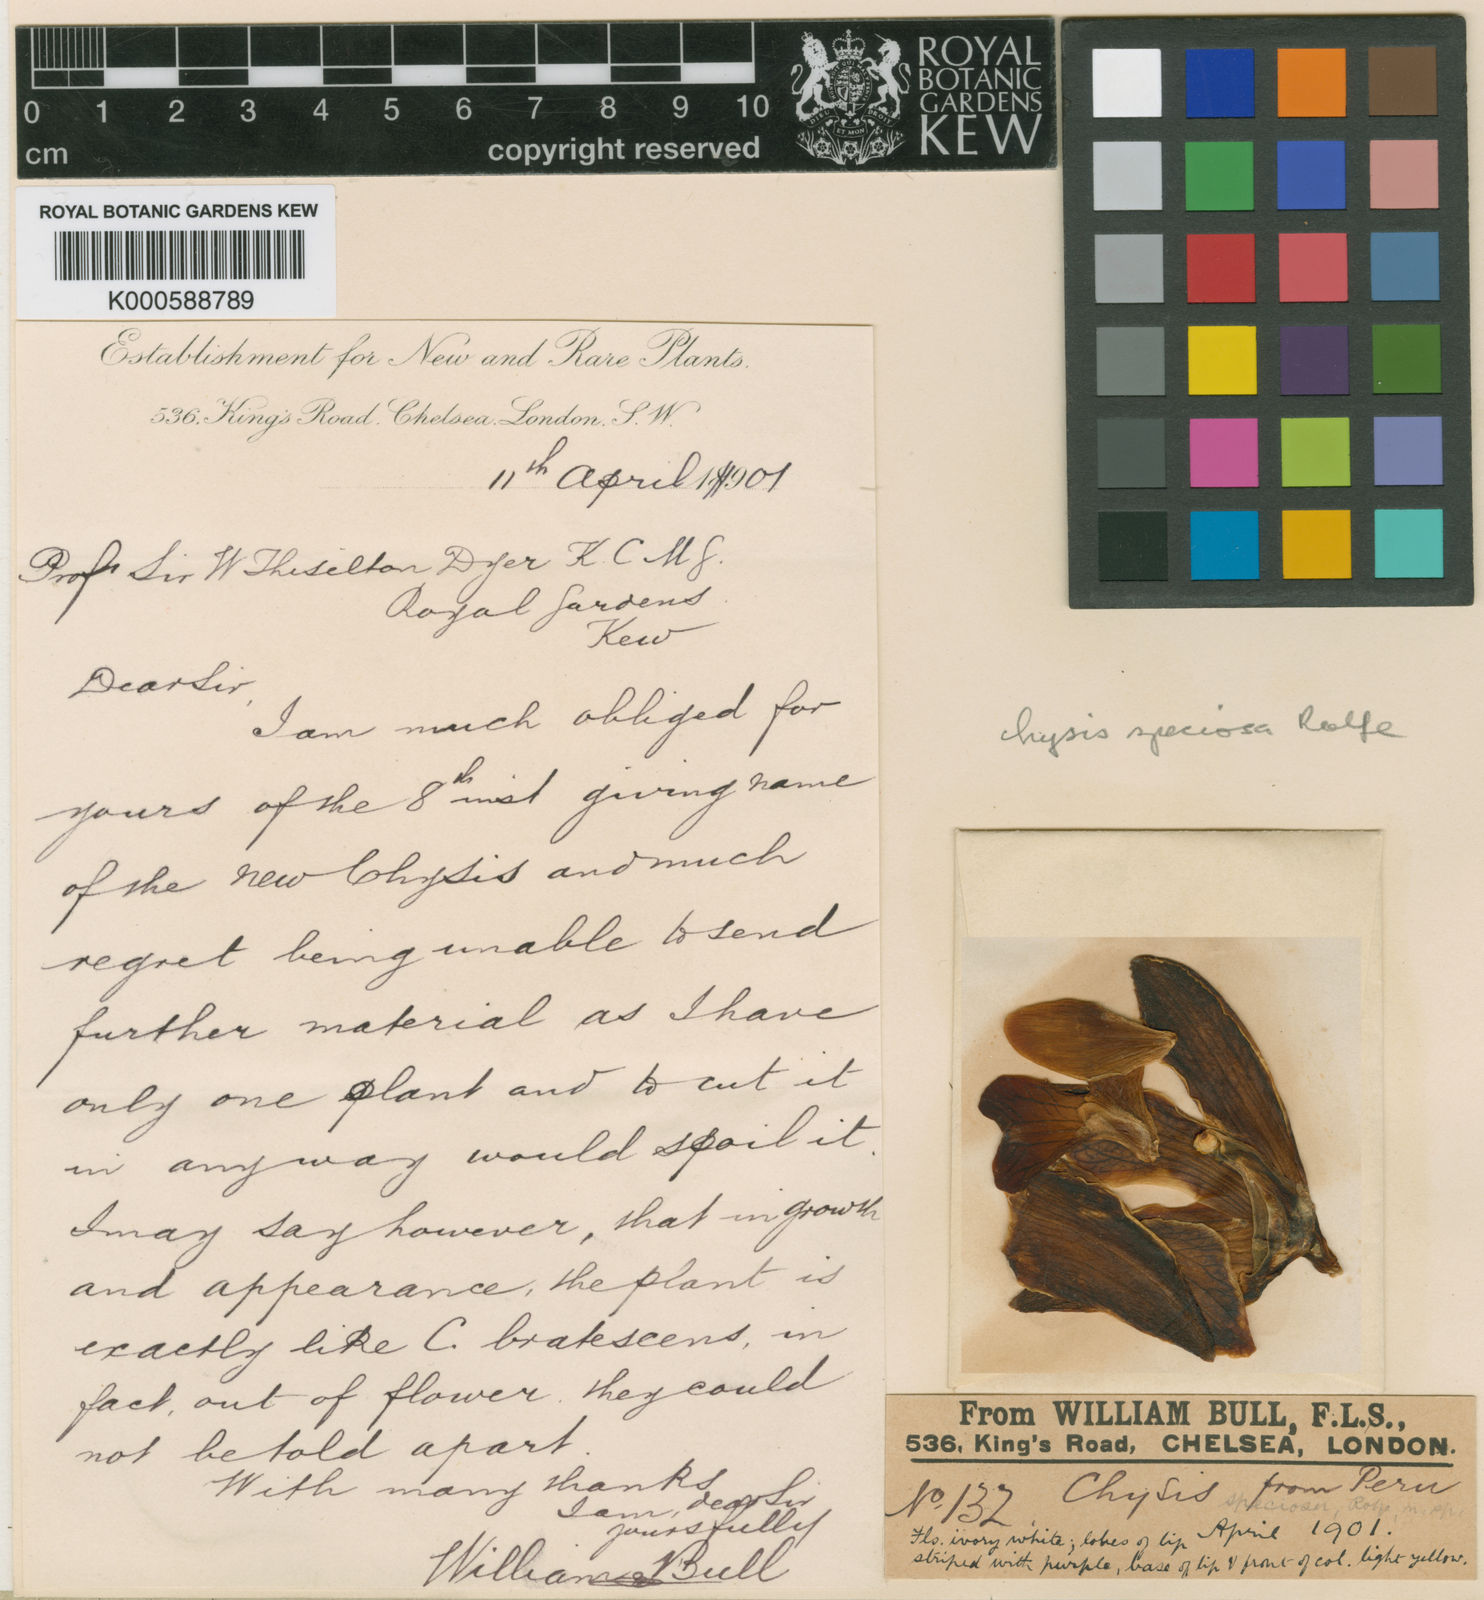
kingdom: Plantae
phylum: Tracheophyta
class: Liliopsida
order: Asparagales
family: Orchidaceae
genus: Chysis
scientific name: Chysis
